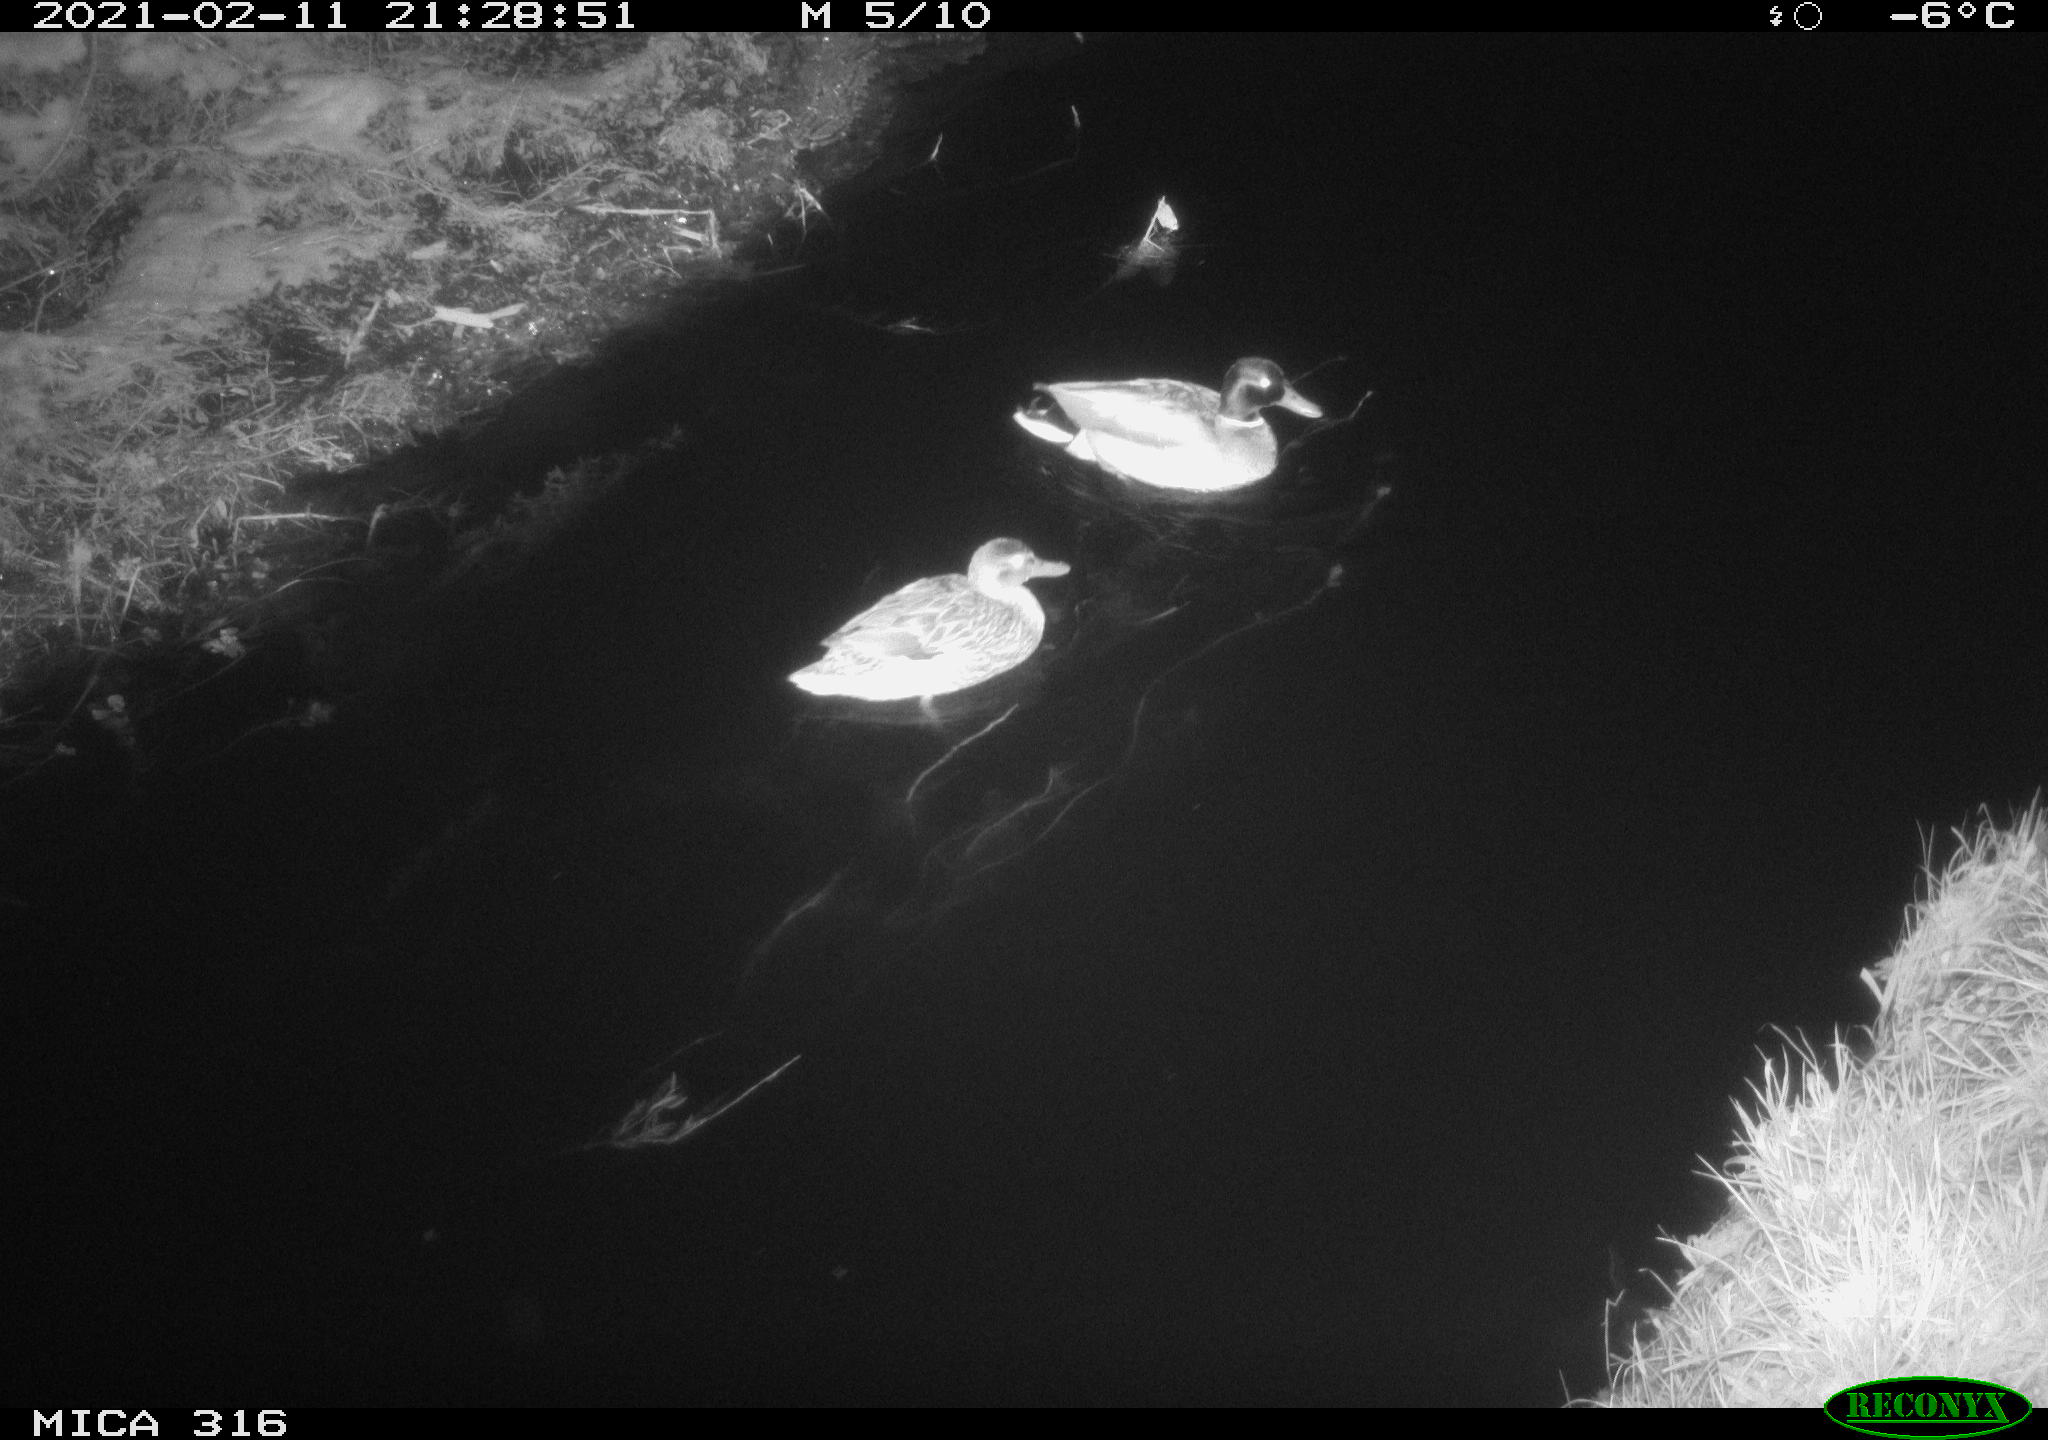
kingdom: Animalia
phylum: Chordata
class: Aves
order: Anseriformes
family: Anatidae
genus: Anas
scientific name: Anas platyrhynchos
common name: Mallard
